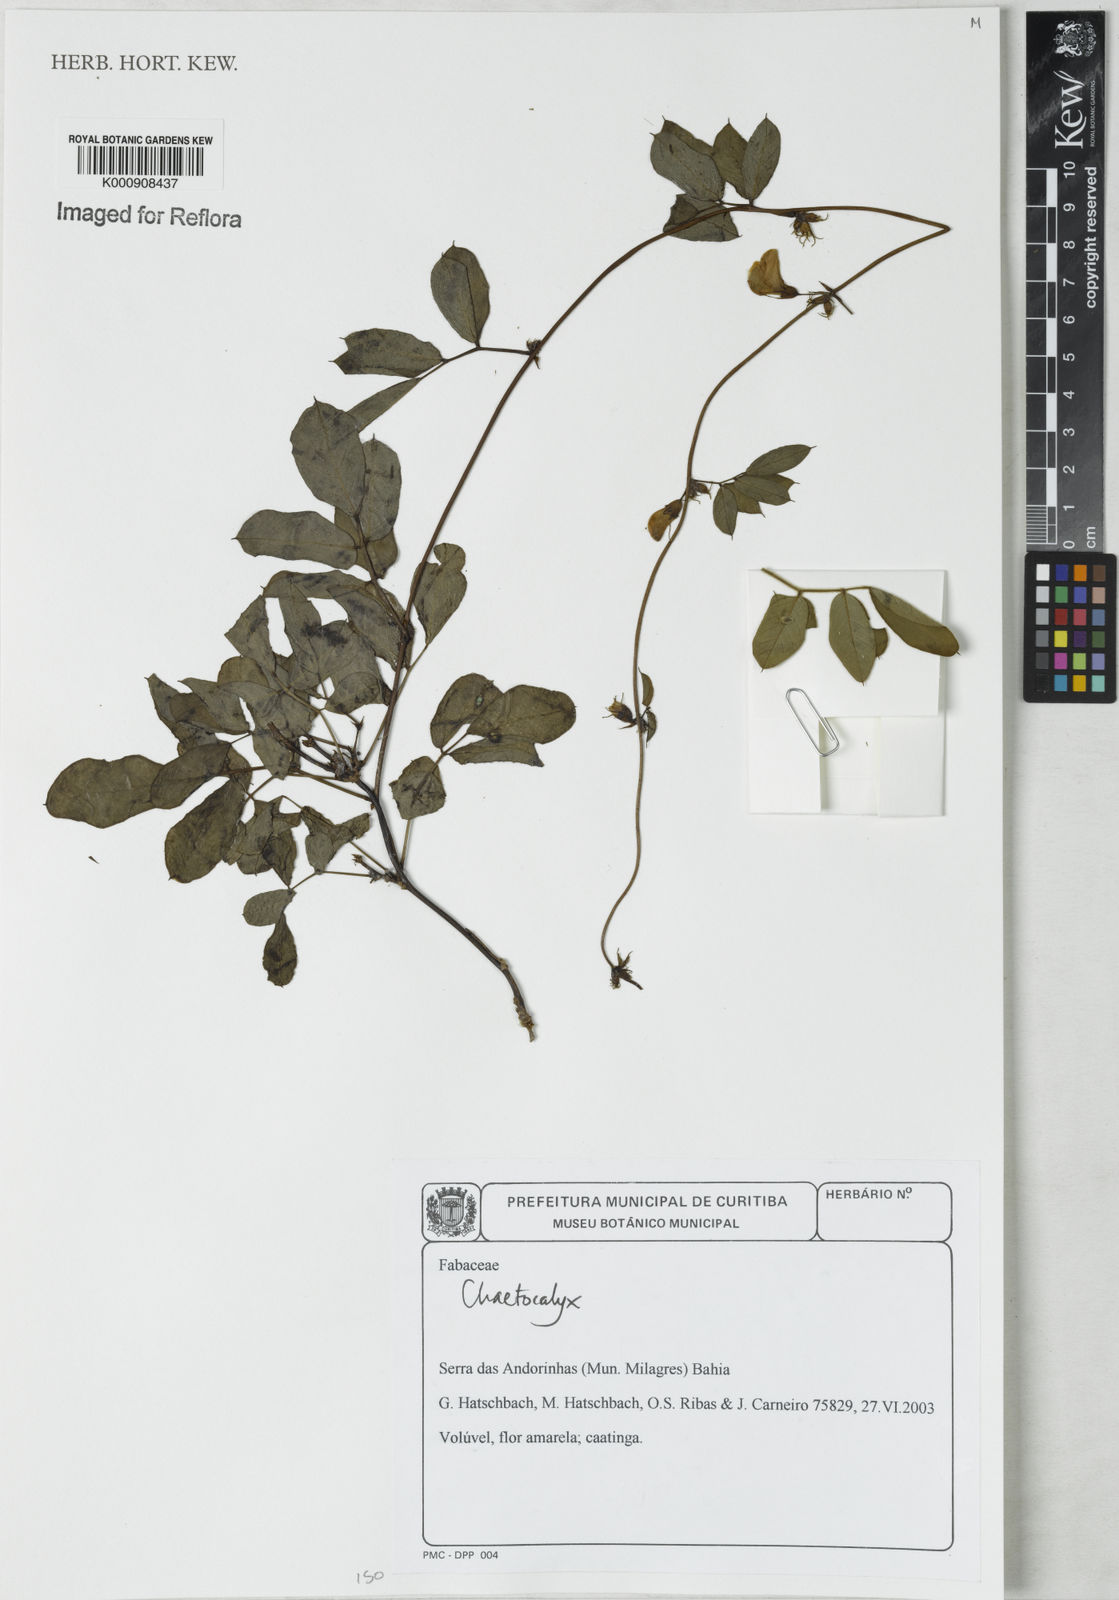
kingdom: Plantae
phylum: Tracheophyta
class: Magnoliopsida
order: Fabales
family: Fabaceae
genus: Nissolia
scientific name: Nissolia
